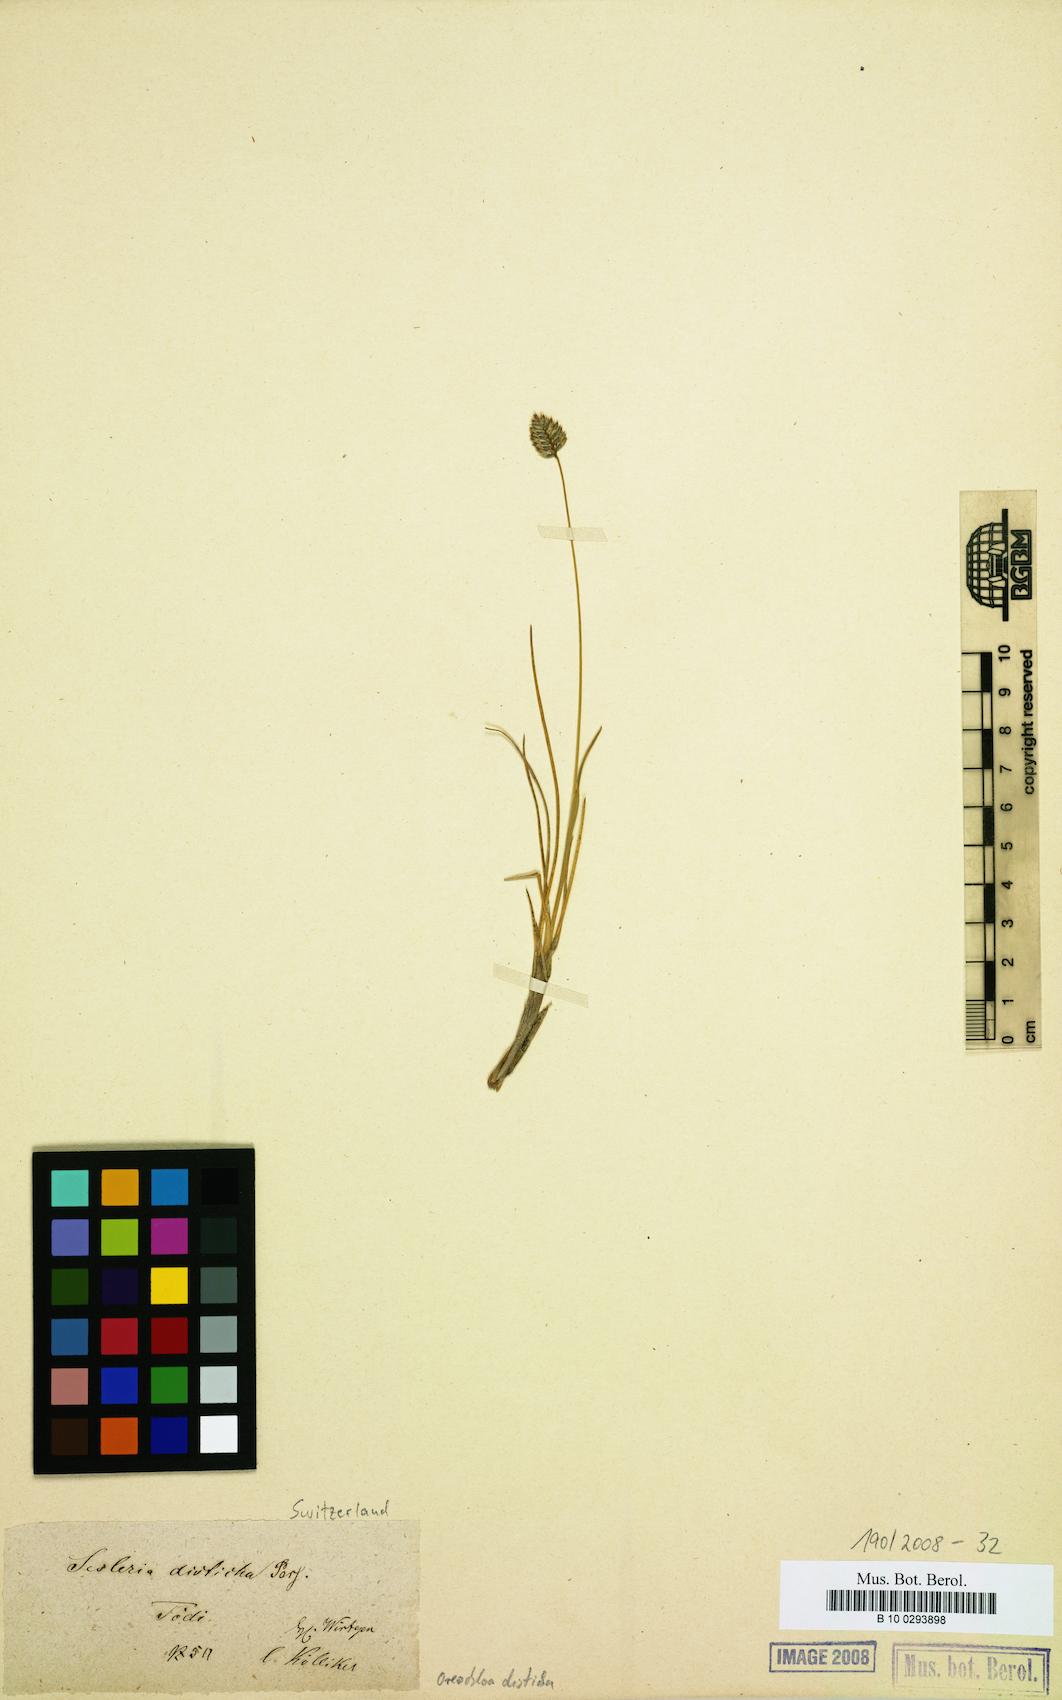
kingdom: Plantae
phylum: Tracheophyta
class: Liliopsida
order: Poales
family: Poaceae
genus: Oreochloa
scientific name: Oreochloa disticha
